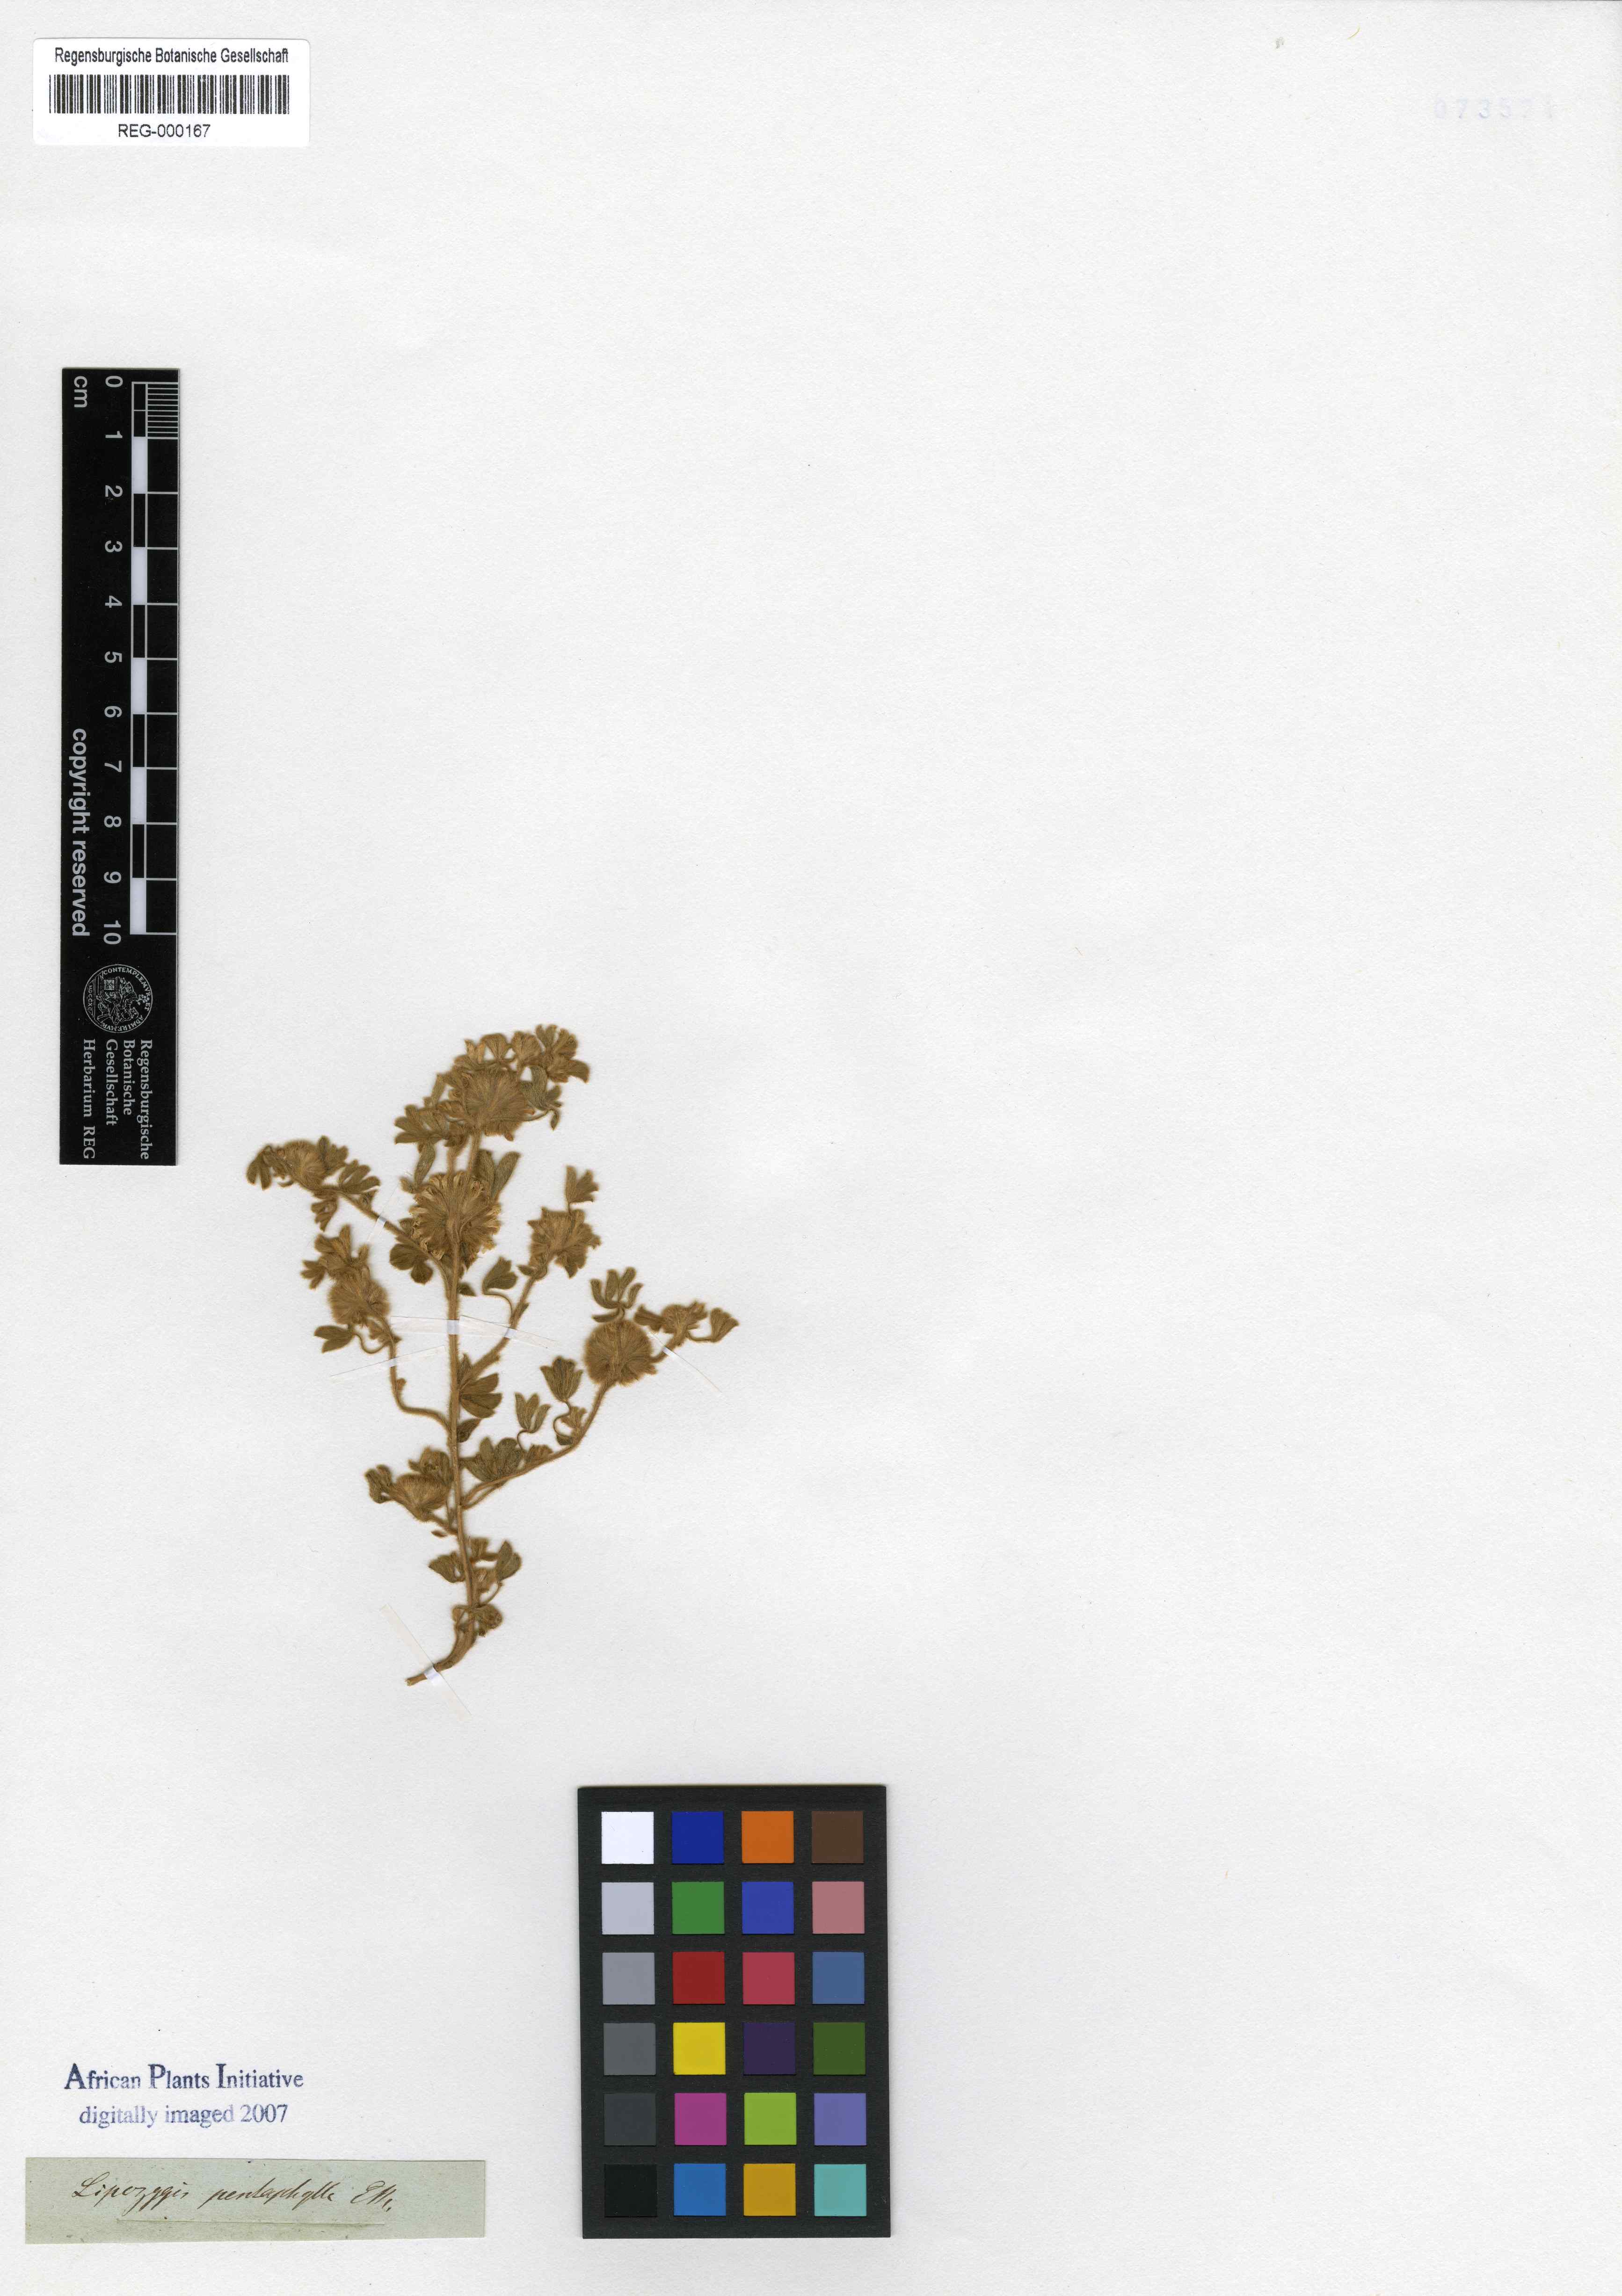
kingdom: Plantae
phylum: Tracheophyta
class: Magnoliopsida
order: Fabales
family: Fabaceae
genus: Leobordea
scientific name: Leobordea pentaphylla
